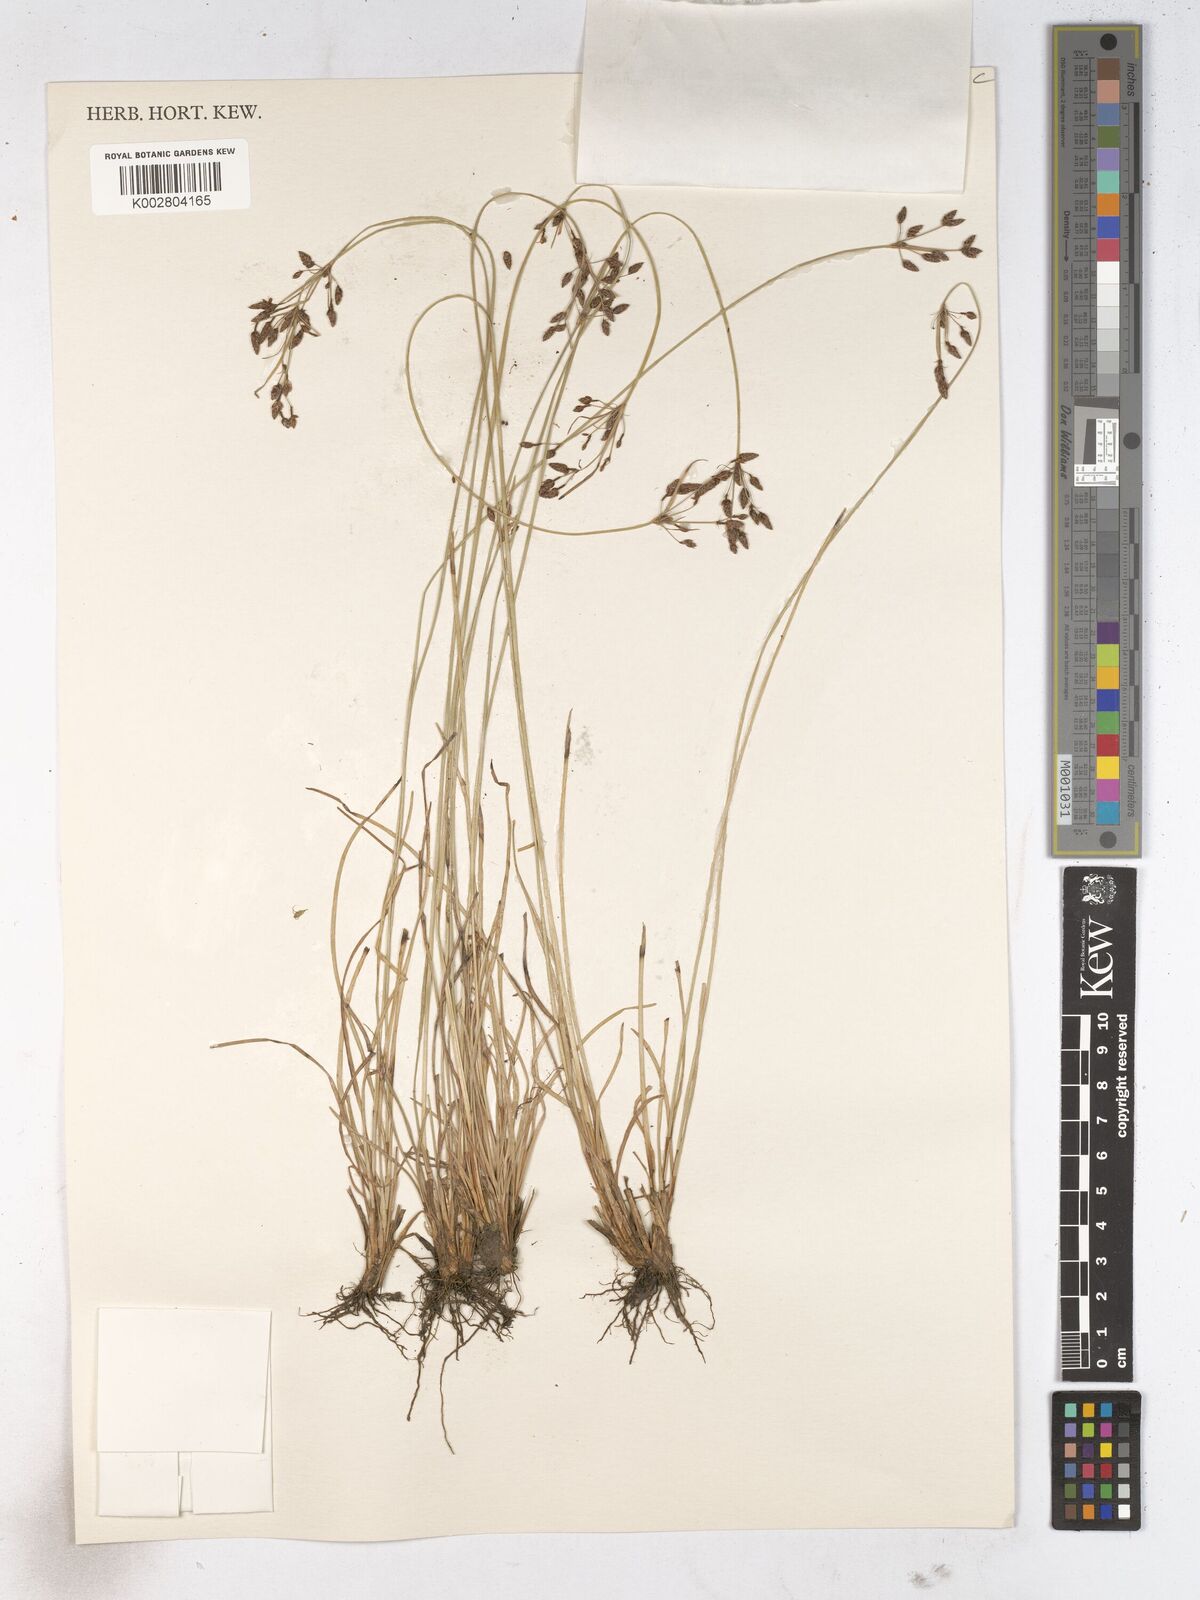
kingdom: Plantae
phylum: Tracheophyta
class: Liliopsida
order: Poales
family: Cyperaceae
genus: Fimbristylis
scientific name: Fimbristylis dichotoma
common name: Forked fimbry
